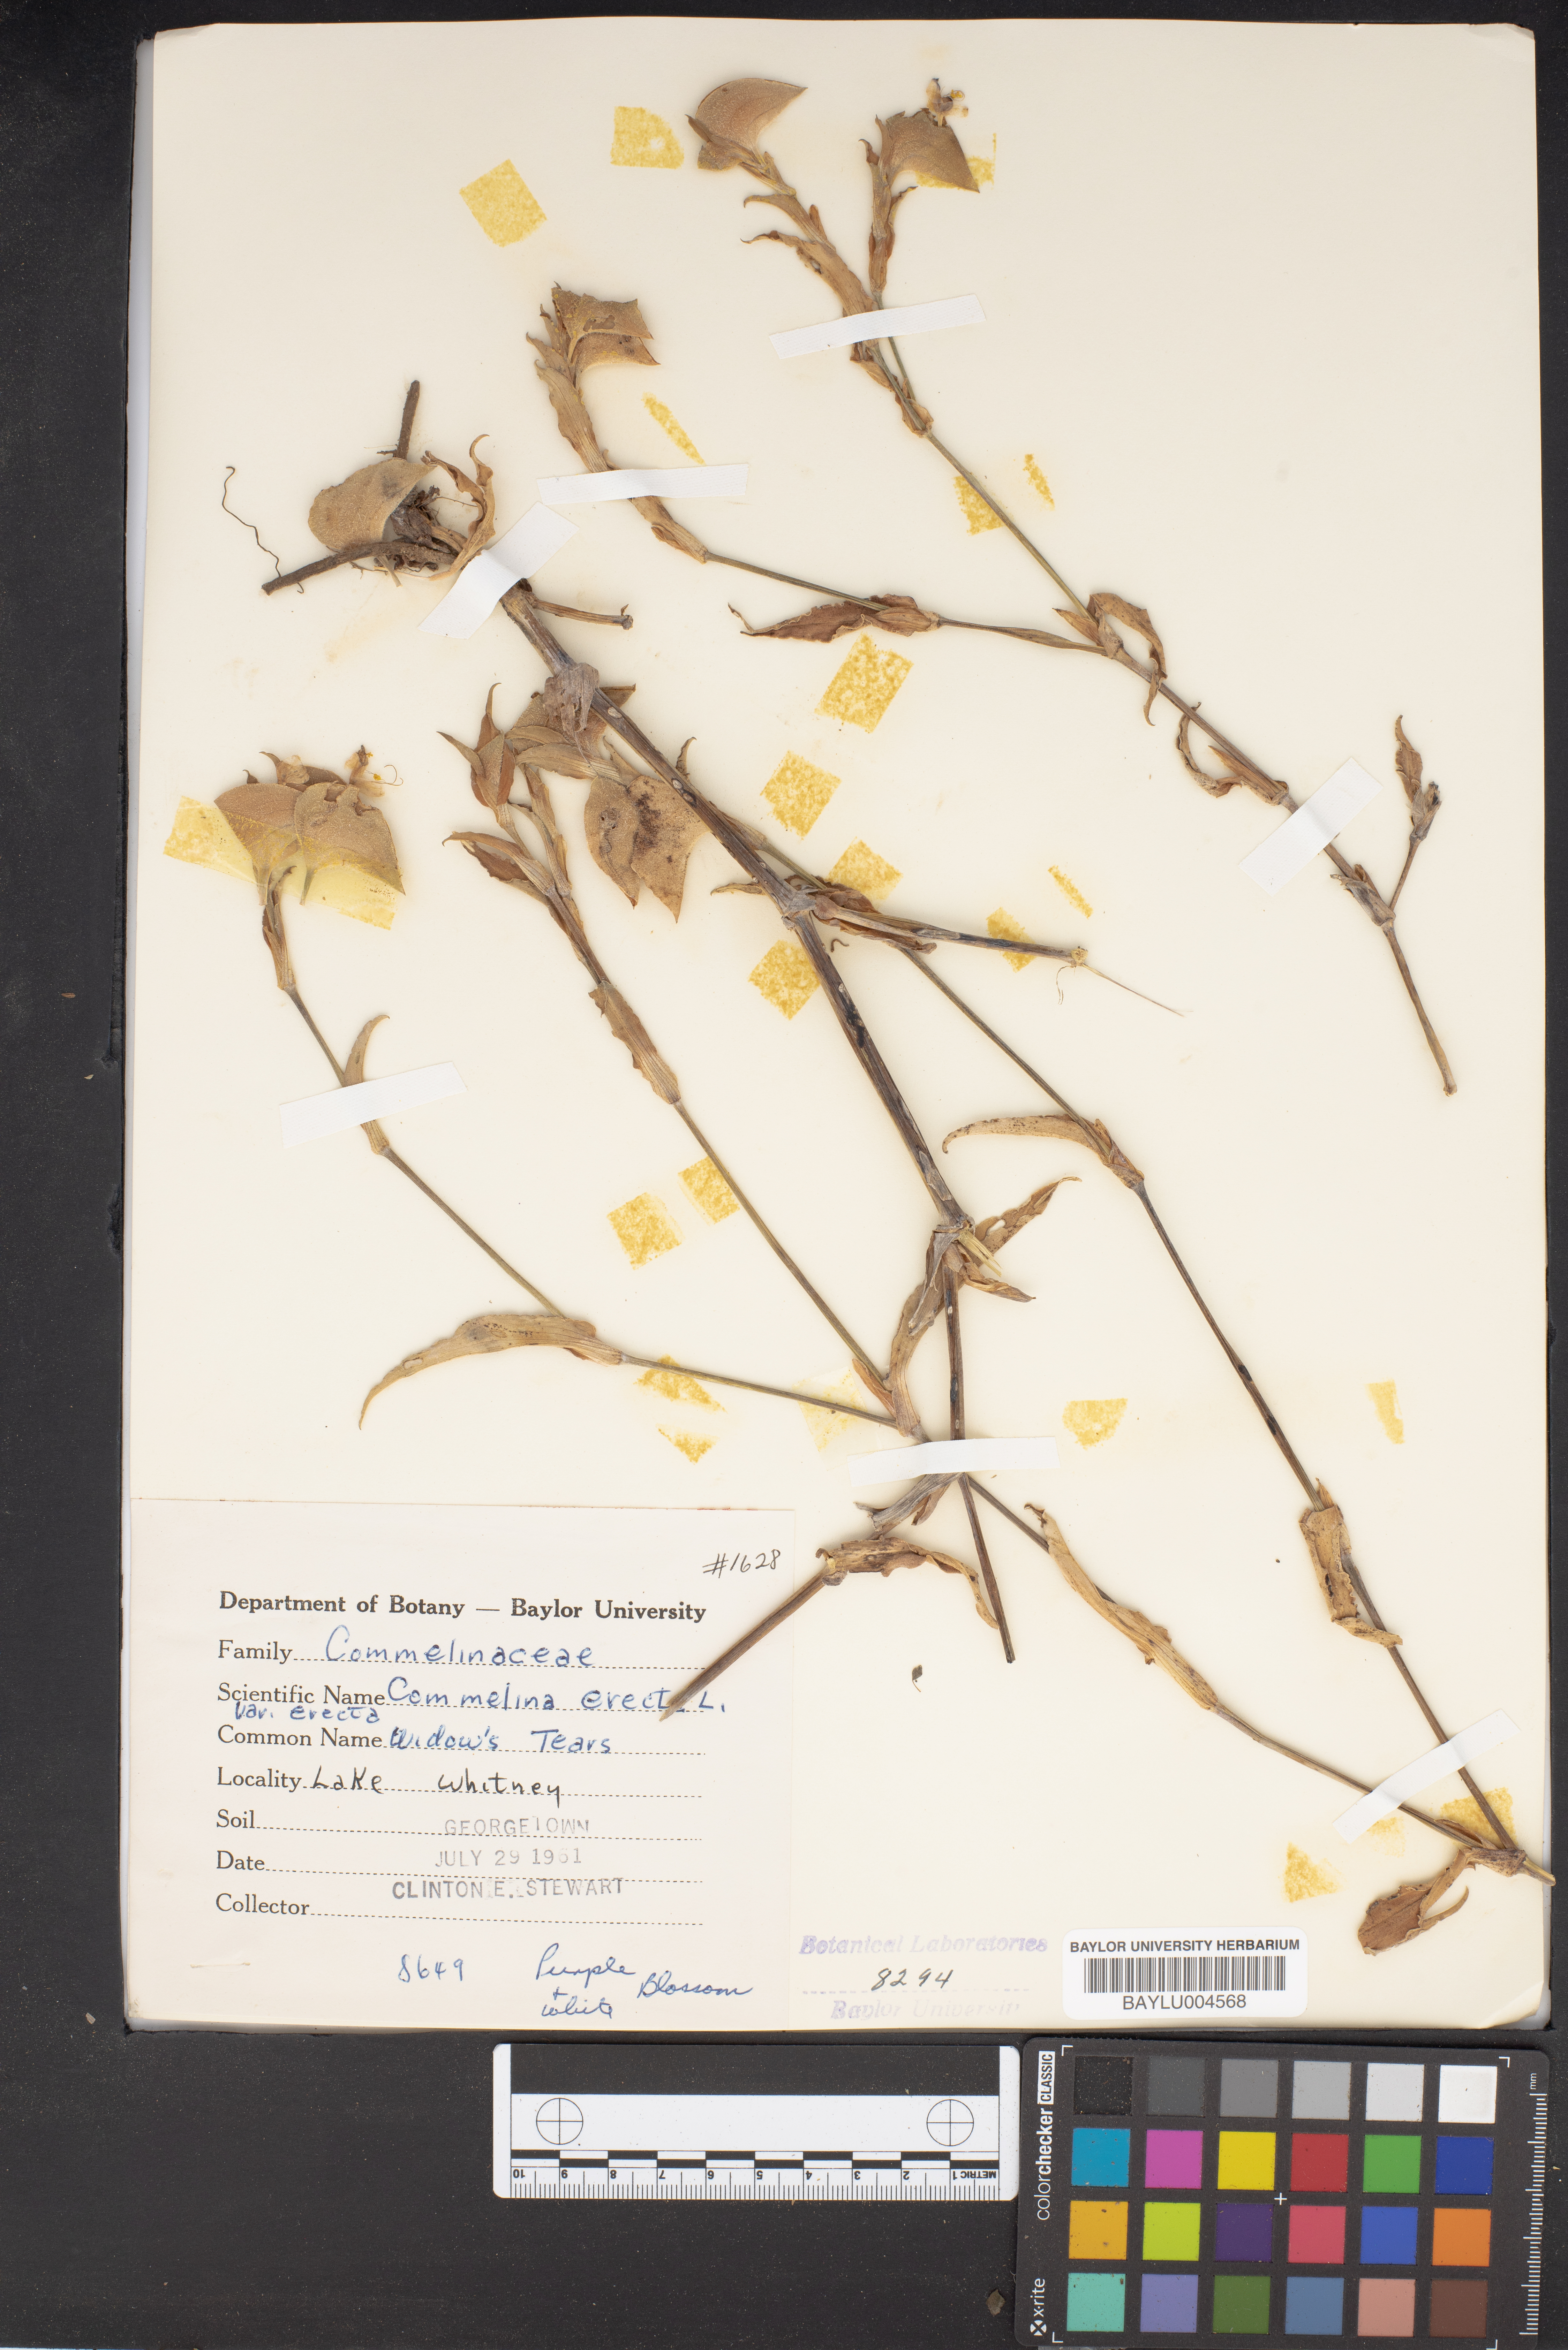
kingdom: Plantae
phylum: Tracheophyta
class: Liliopsida
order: Commelinales
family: Commelinaceae
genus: Commelina
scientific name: Commelina erecta
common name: Blousel blommetjie
